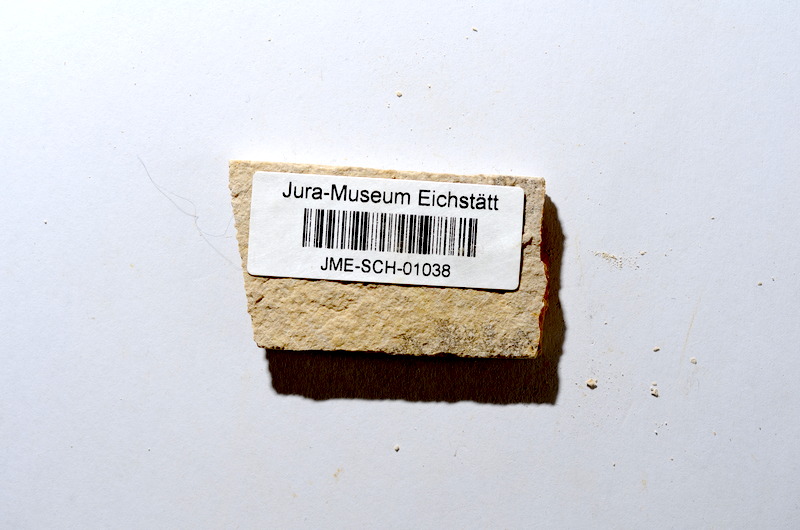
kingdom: Animalia
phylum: Chordata
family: Ascalaboidae
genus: Tharsis
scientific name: Tharsis dubius
